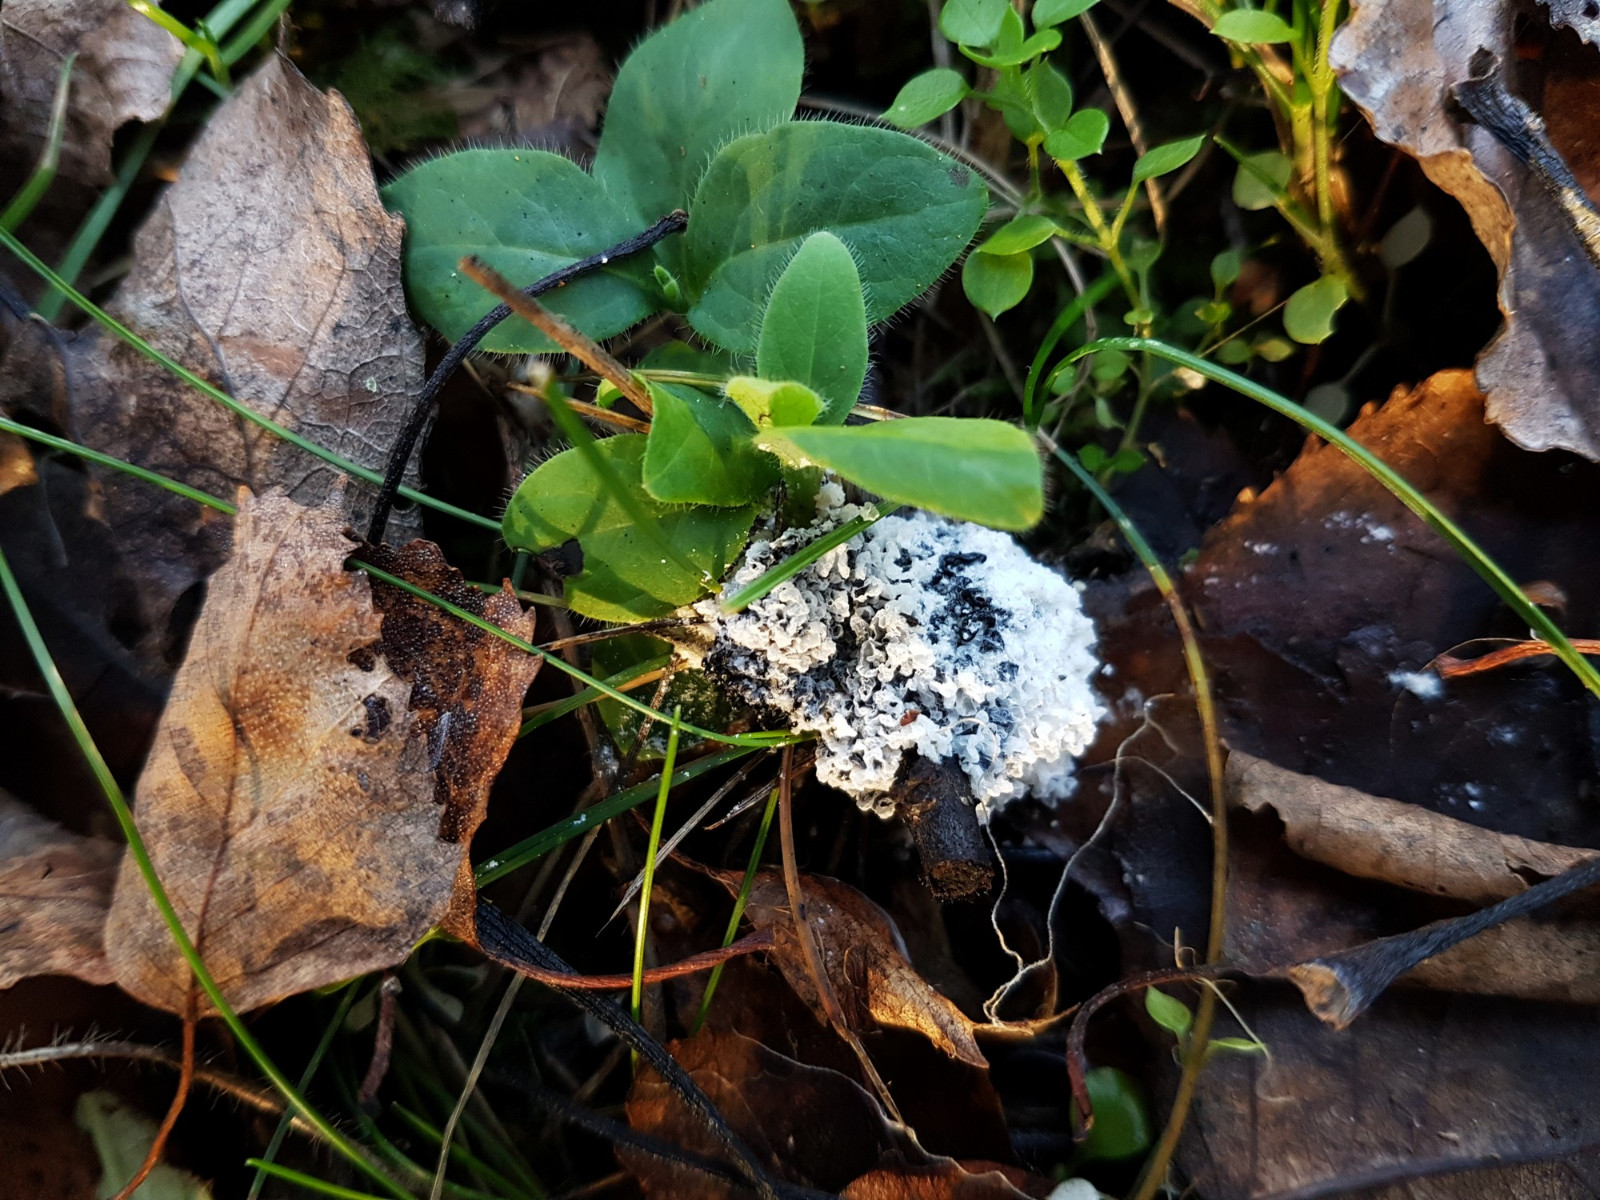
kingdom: Protozoa
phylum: Mycetozoa
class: Myxomycetes
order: Physarales
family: Physaraceae
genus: Didymium
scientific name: Didymium
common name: urteskum
